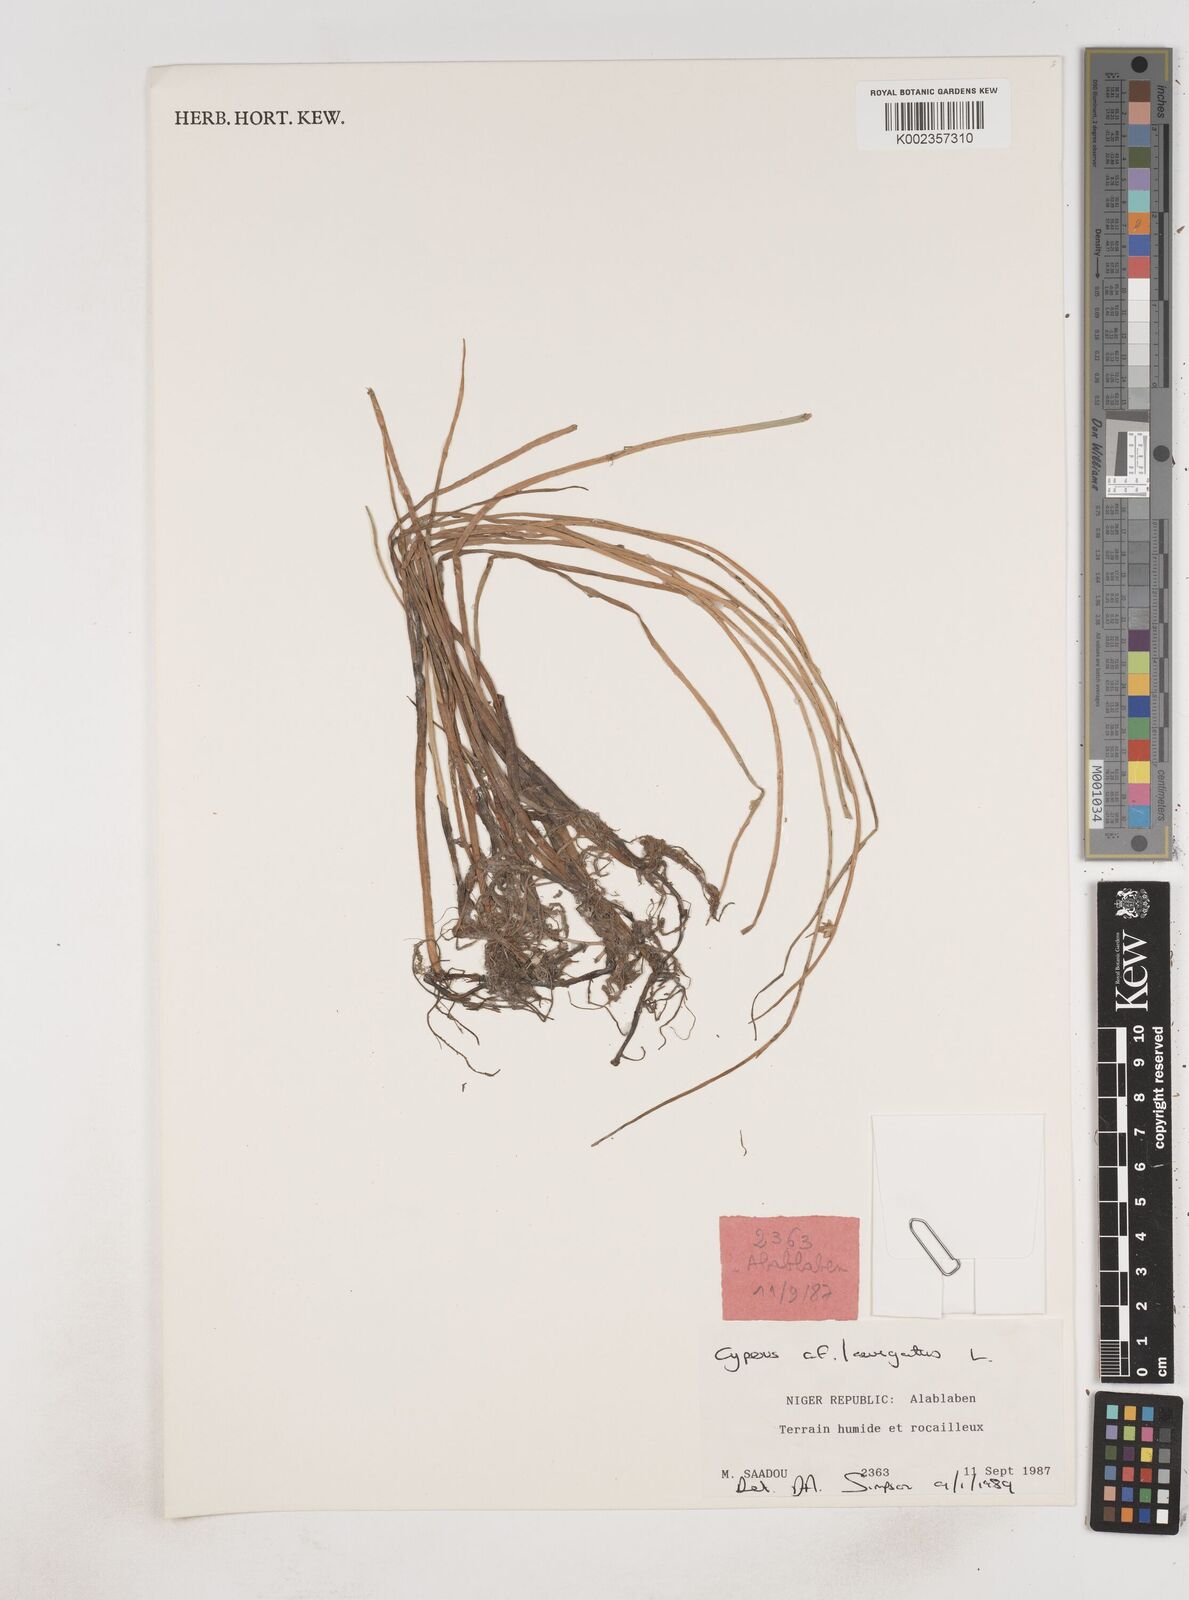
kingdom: Plantae
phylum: Tracheophyta
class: Liliopsida
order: Poales
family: Cyperaceae
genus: Cyperus
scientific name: Cyperus laevigatus
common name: Smooth flat sedge
